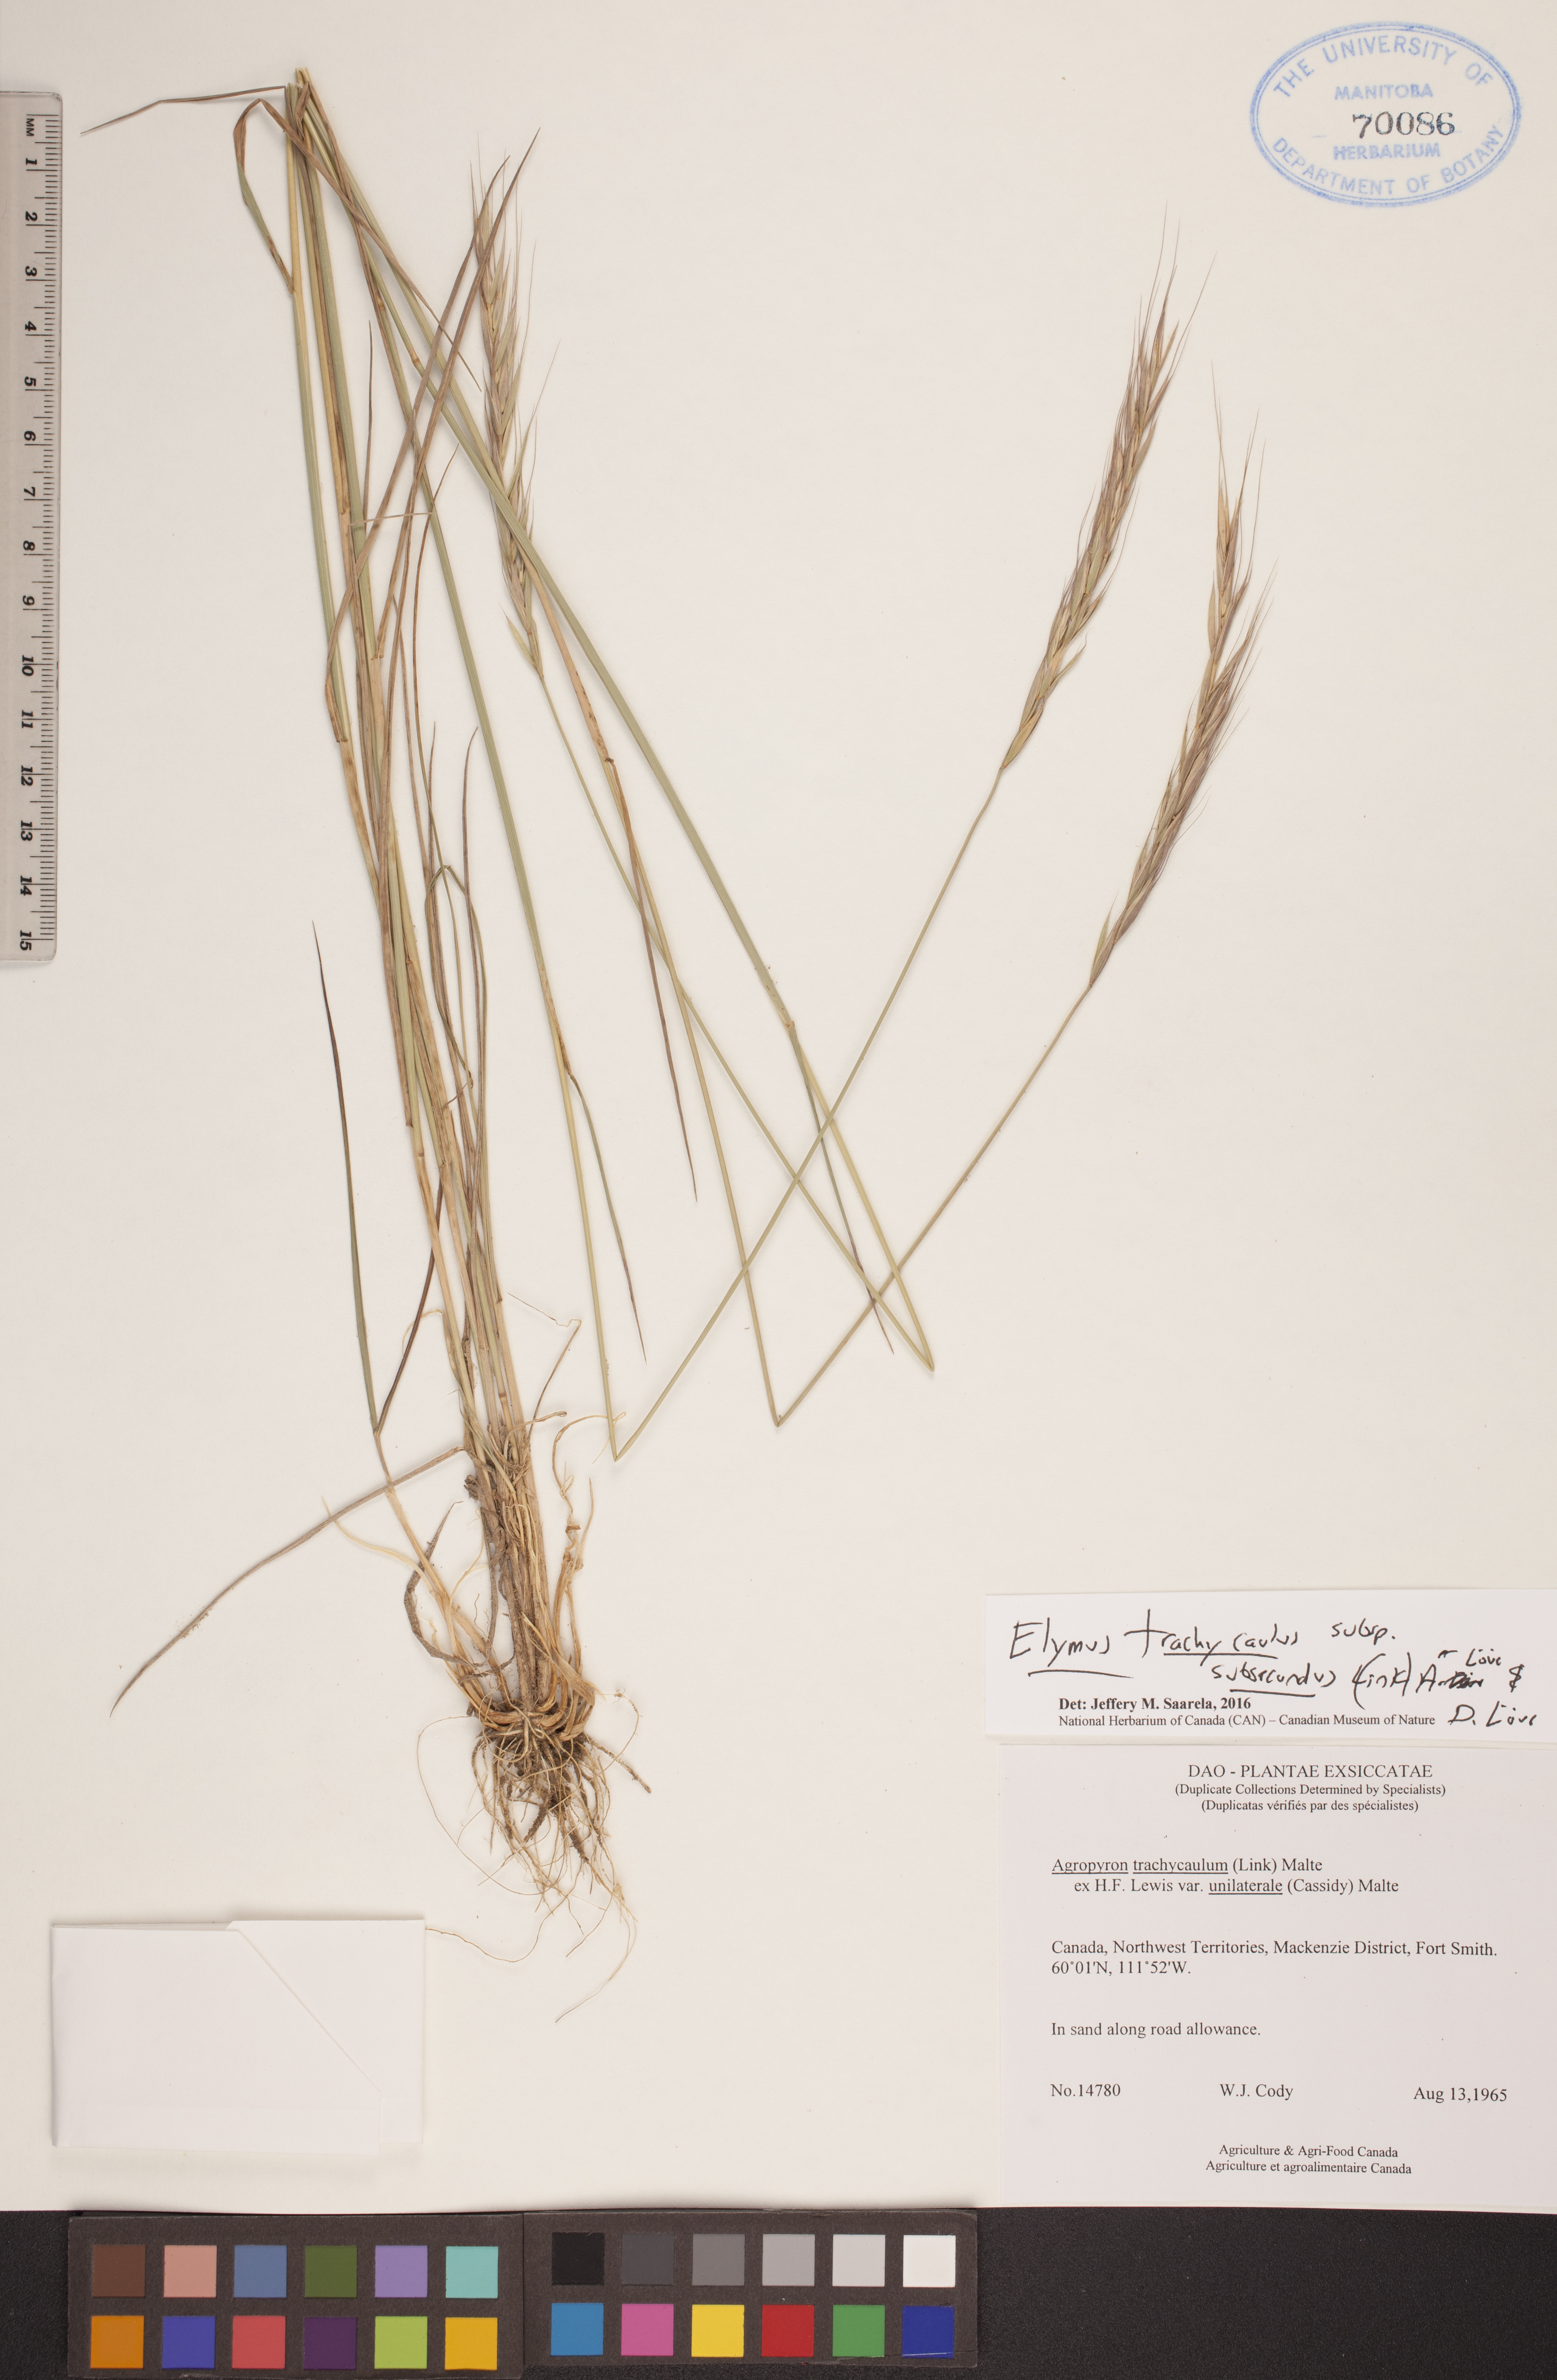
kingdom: Plantae
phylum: Tracheophyta
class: Liliopsida
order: Poales
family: Poaceae
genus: Elymus
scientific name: Elymus violaceus
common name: Arctic wheatgrass
